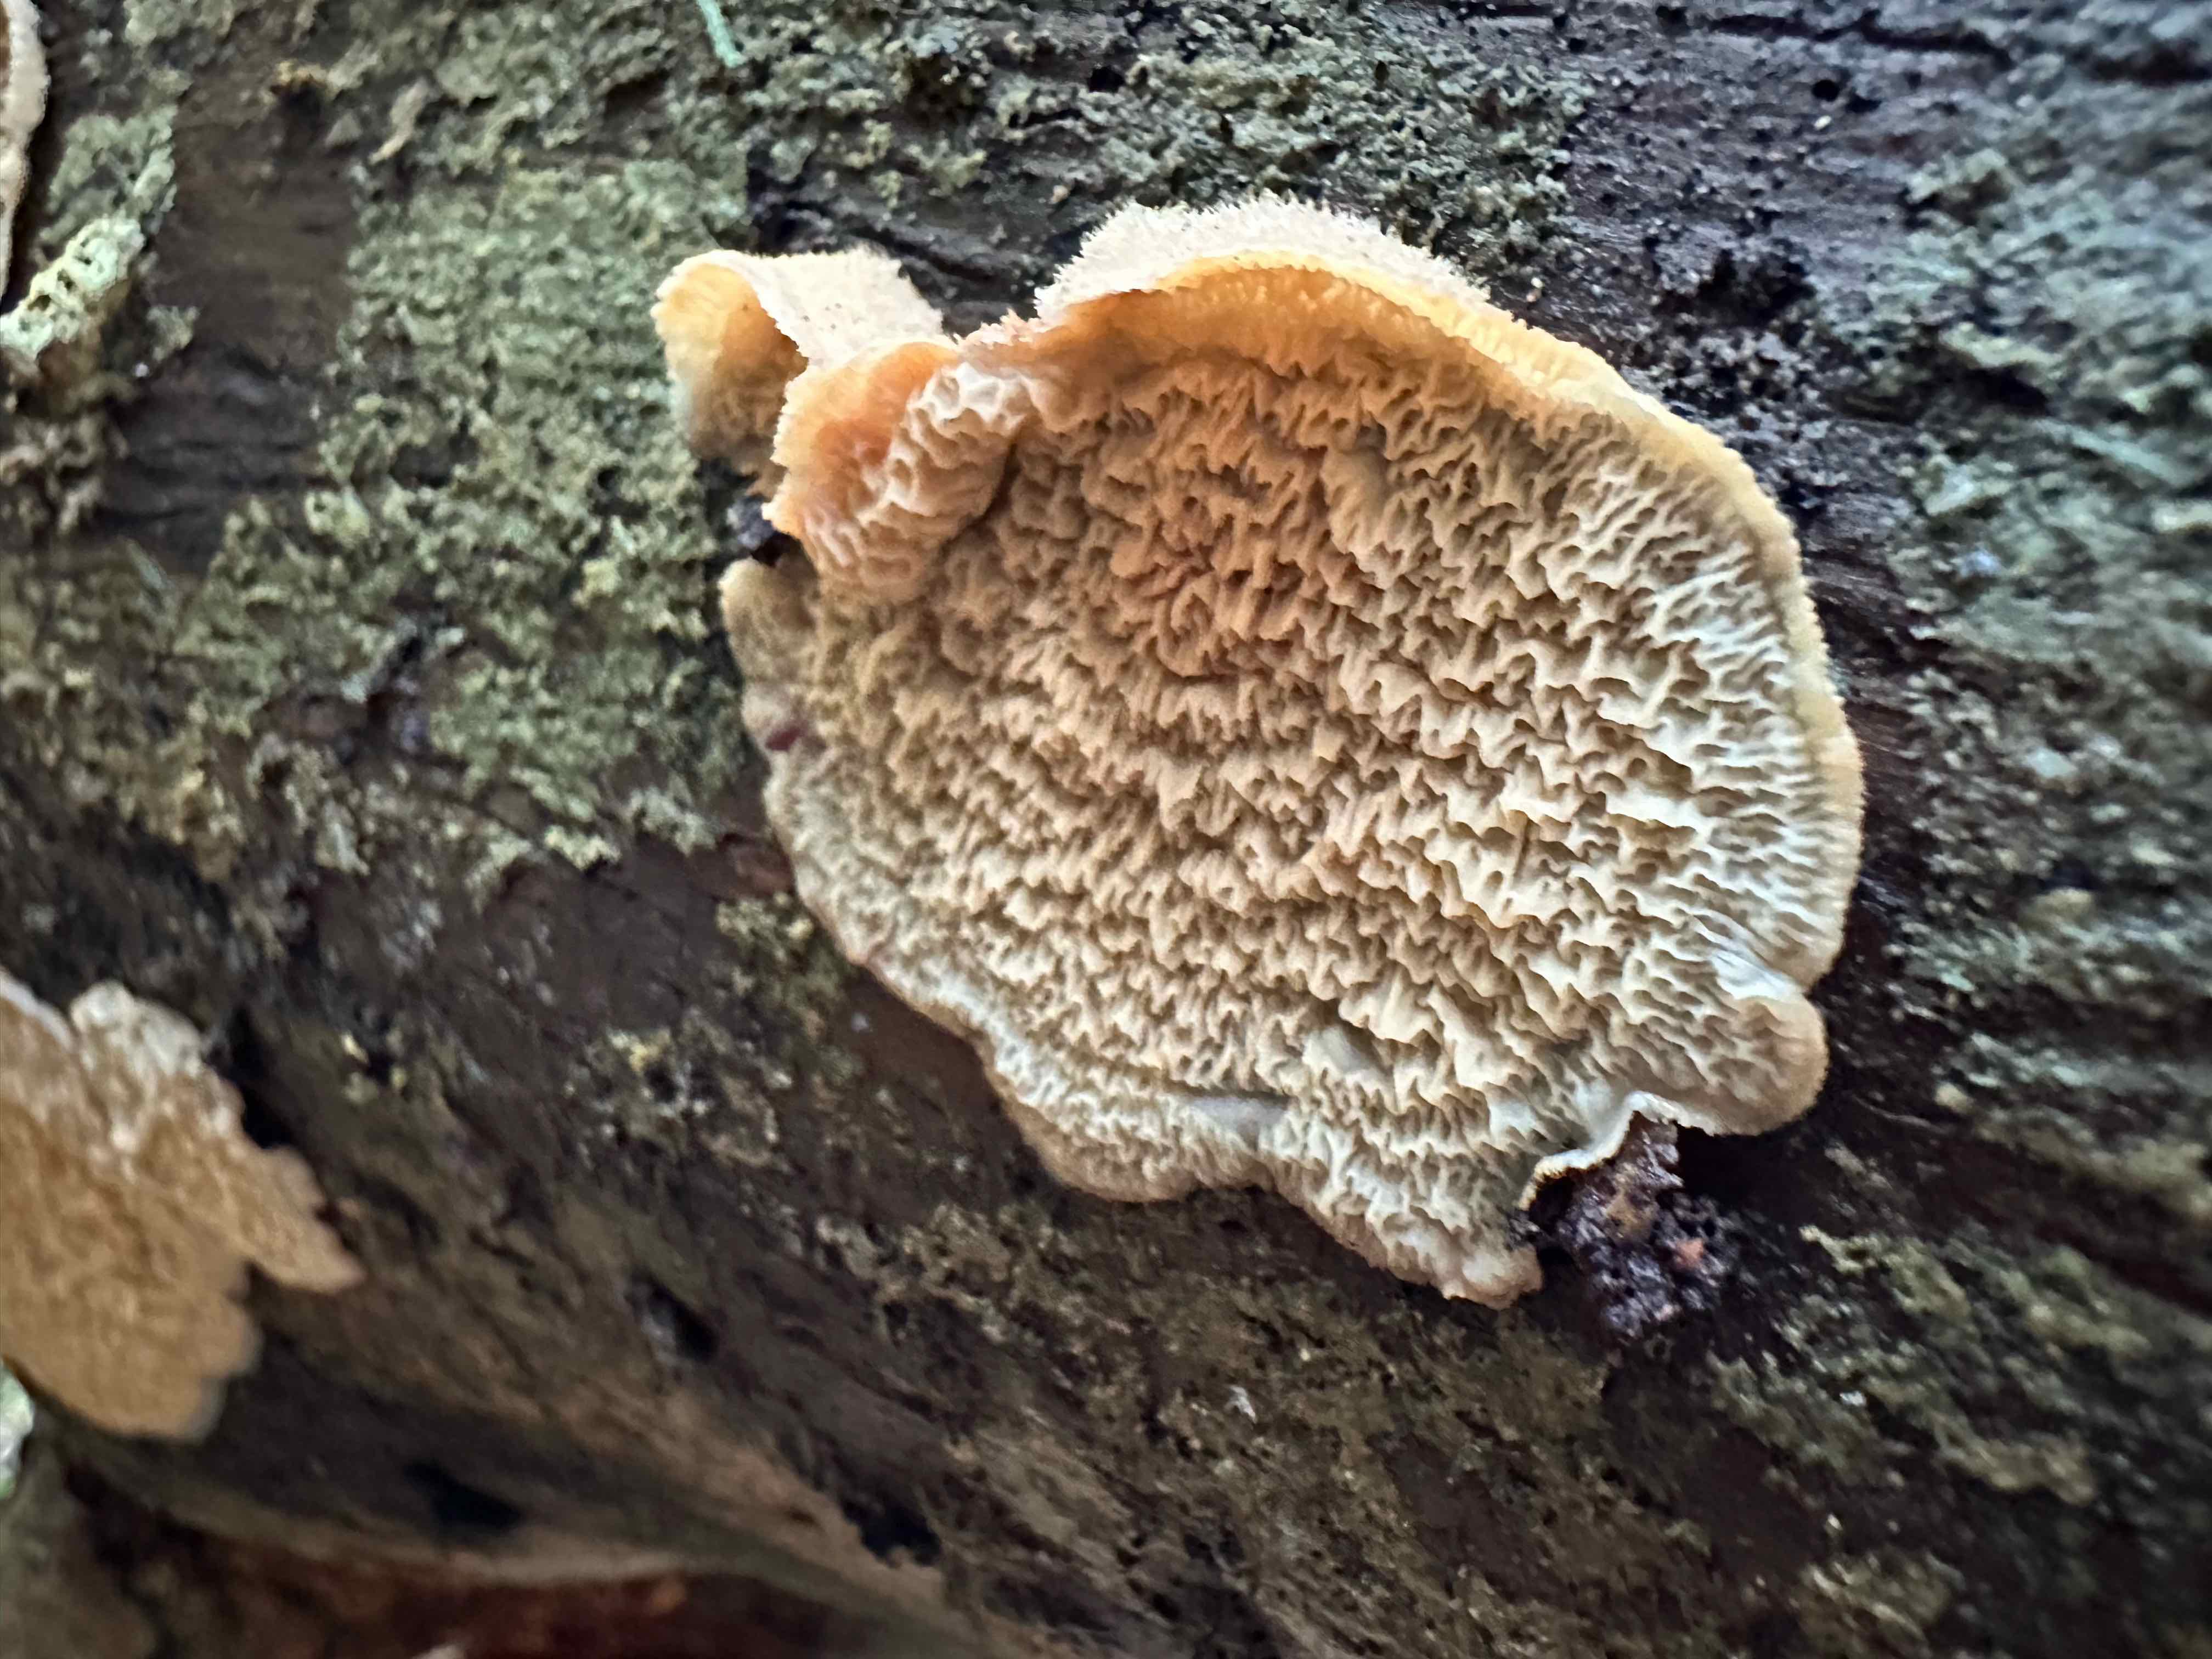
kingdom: Fungi
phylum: Basidiomycota
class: Agaricomycetes
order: Polyporales
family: Meruliaceae
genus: Phlebia
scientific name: Phlebia tremellosa
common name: bævrende åresvamp
